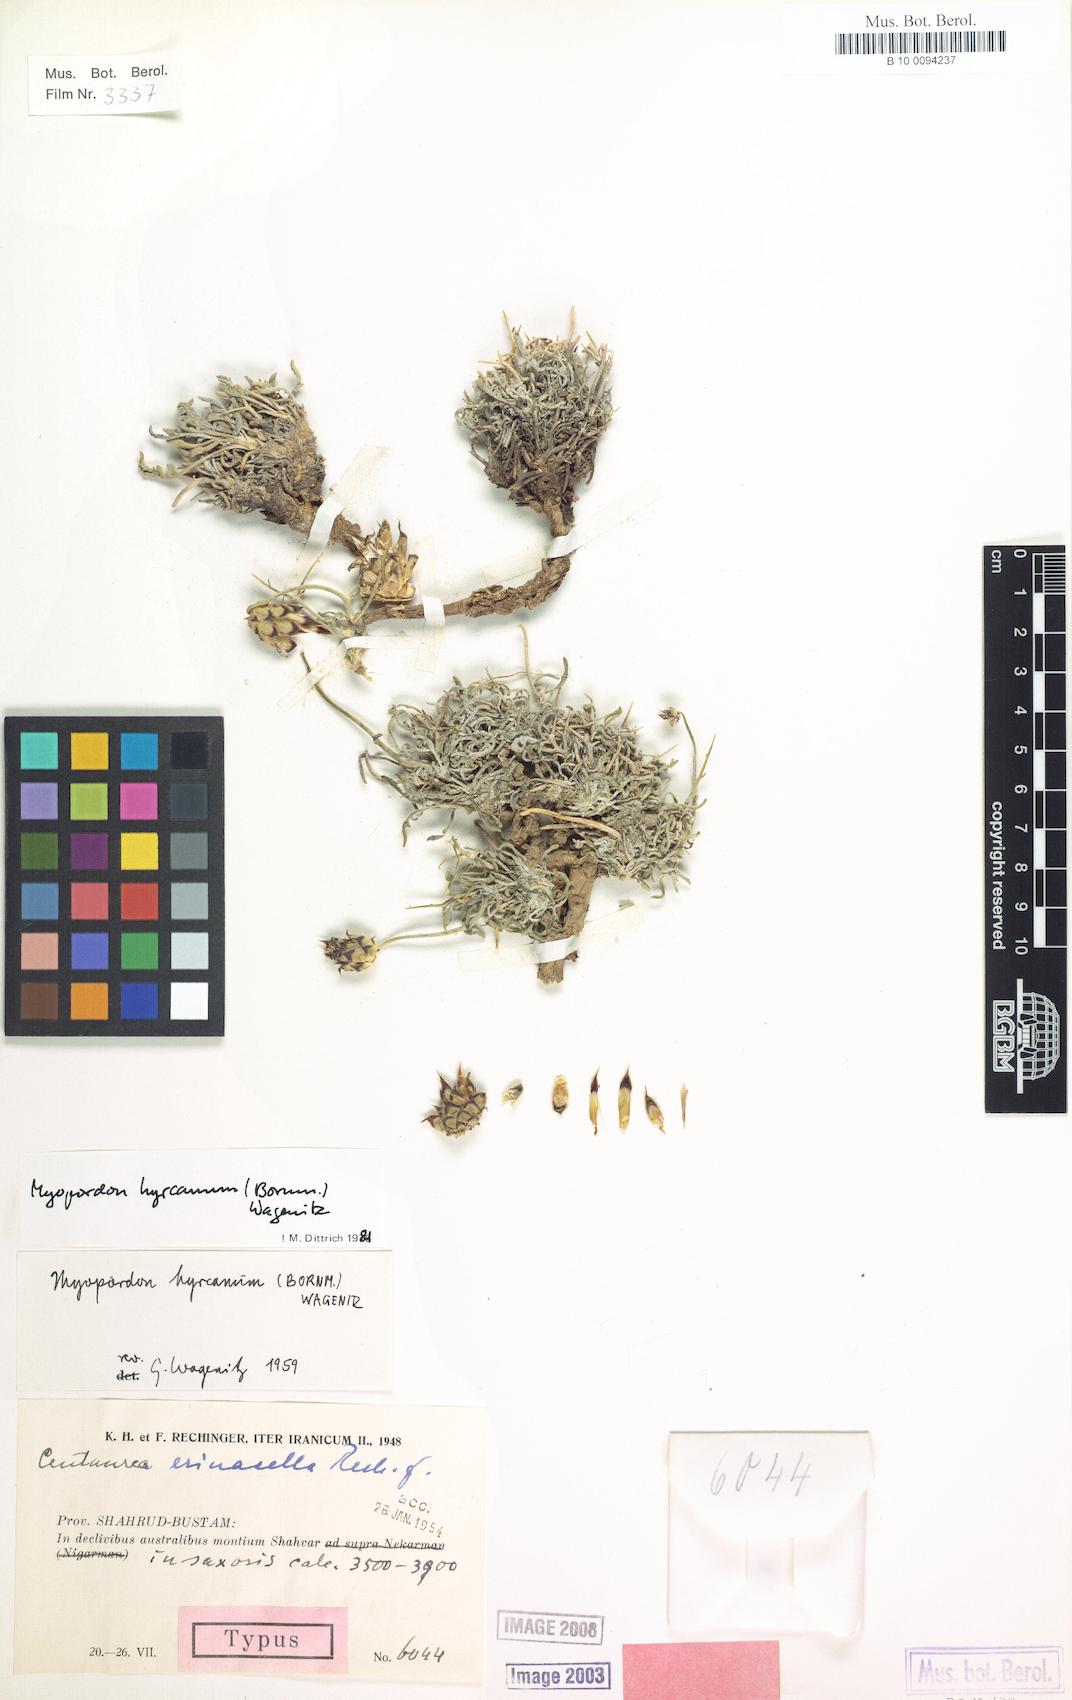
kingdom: Plantae
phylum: Tracheophyta
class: Magnoliopsida
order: Asterales
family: Asteraceae
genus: Myopordon
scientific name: Myopordon hyrcanum
